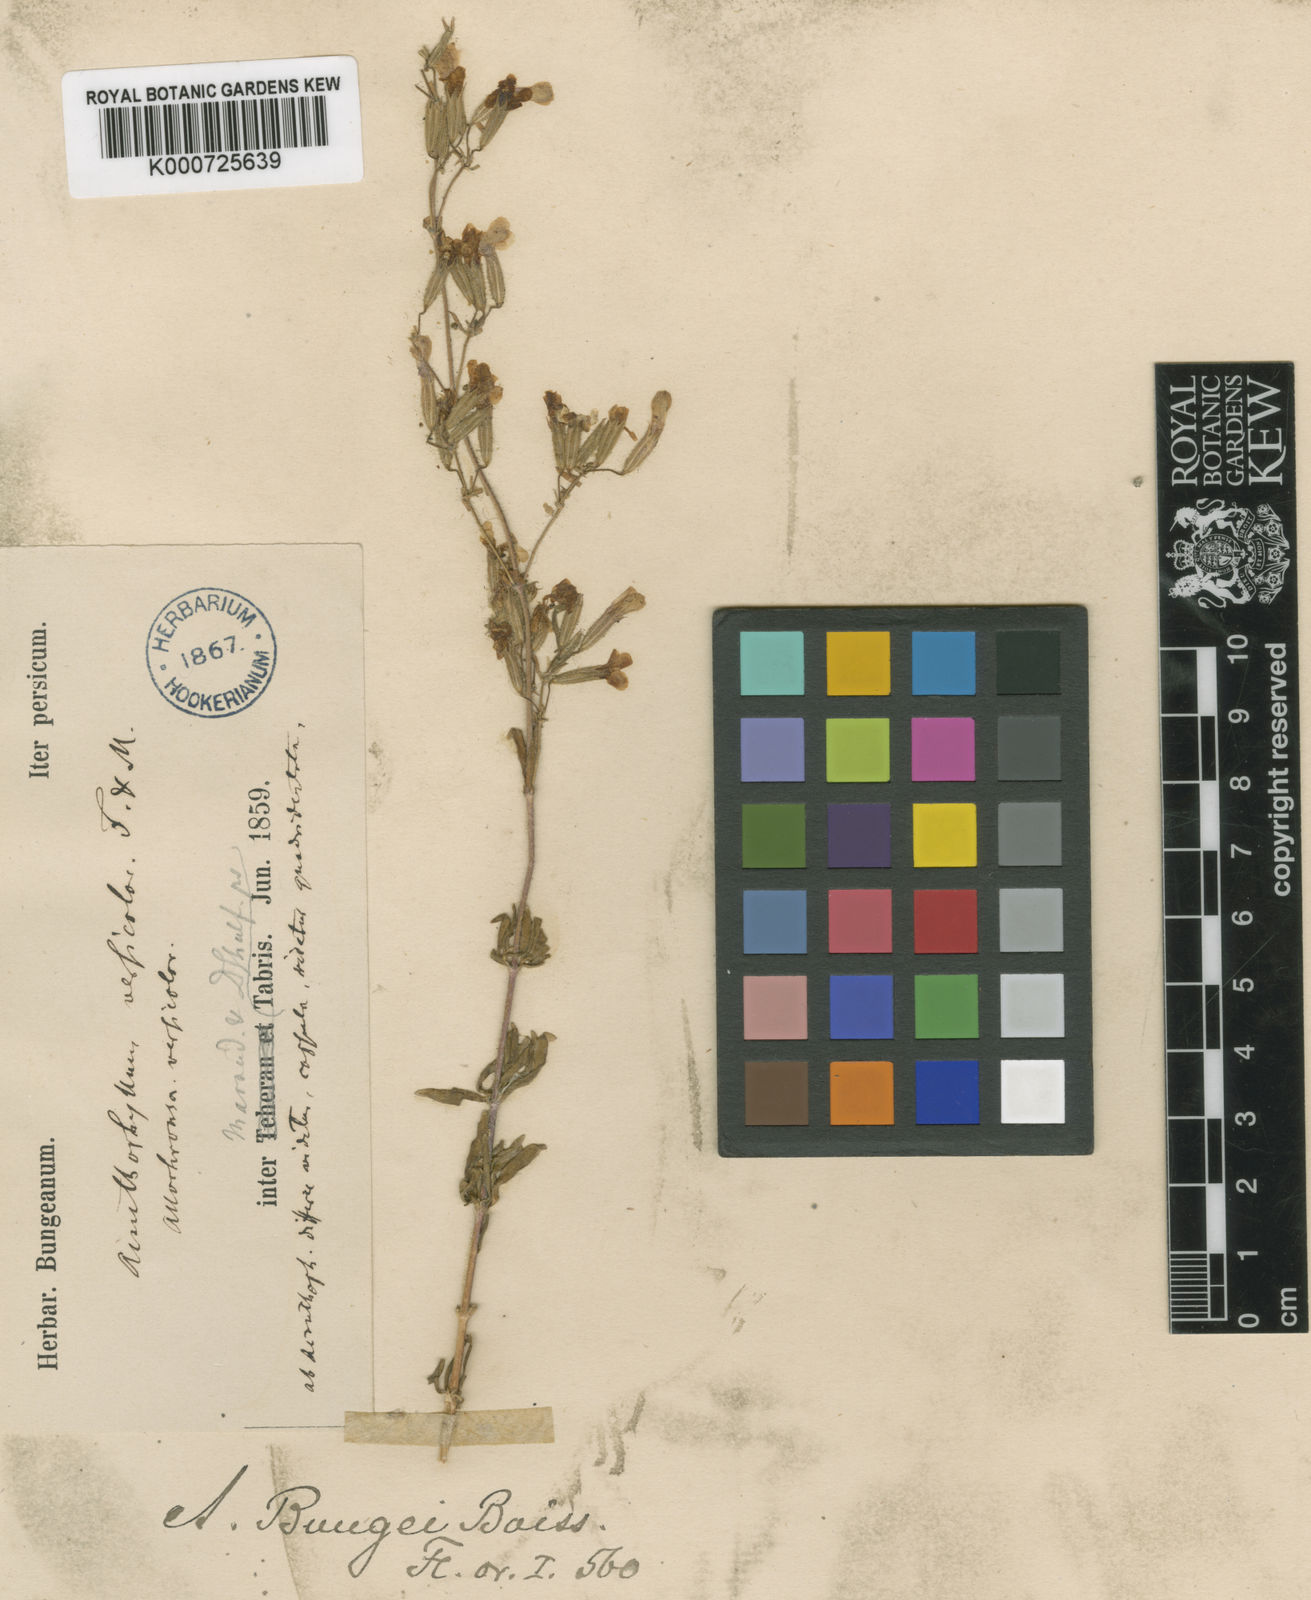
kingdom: Plantae
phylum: Tracheophyta
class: Magnoliopsida
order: Caryophyllales
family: Caryophyllaceae
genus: Acanthophyllum
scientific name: Acanthophyllum bungei
